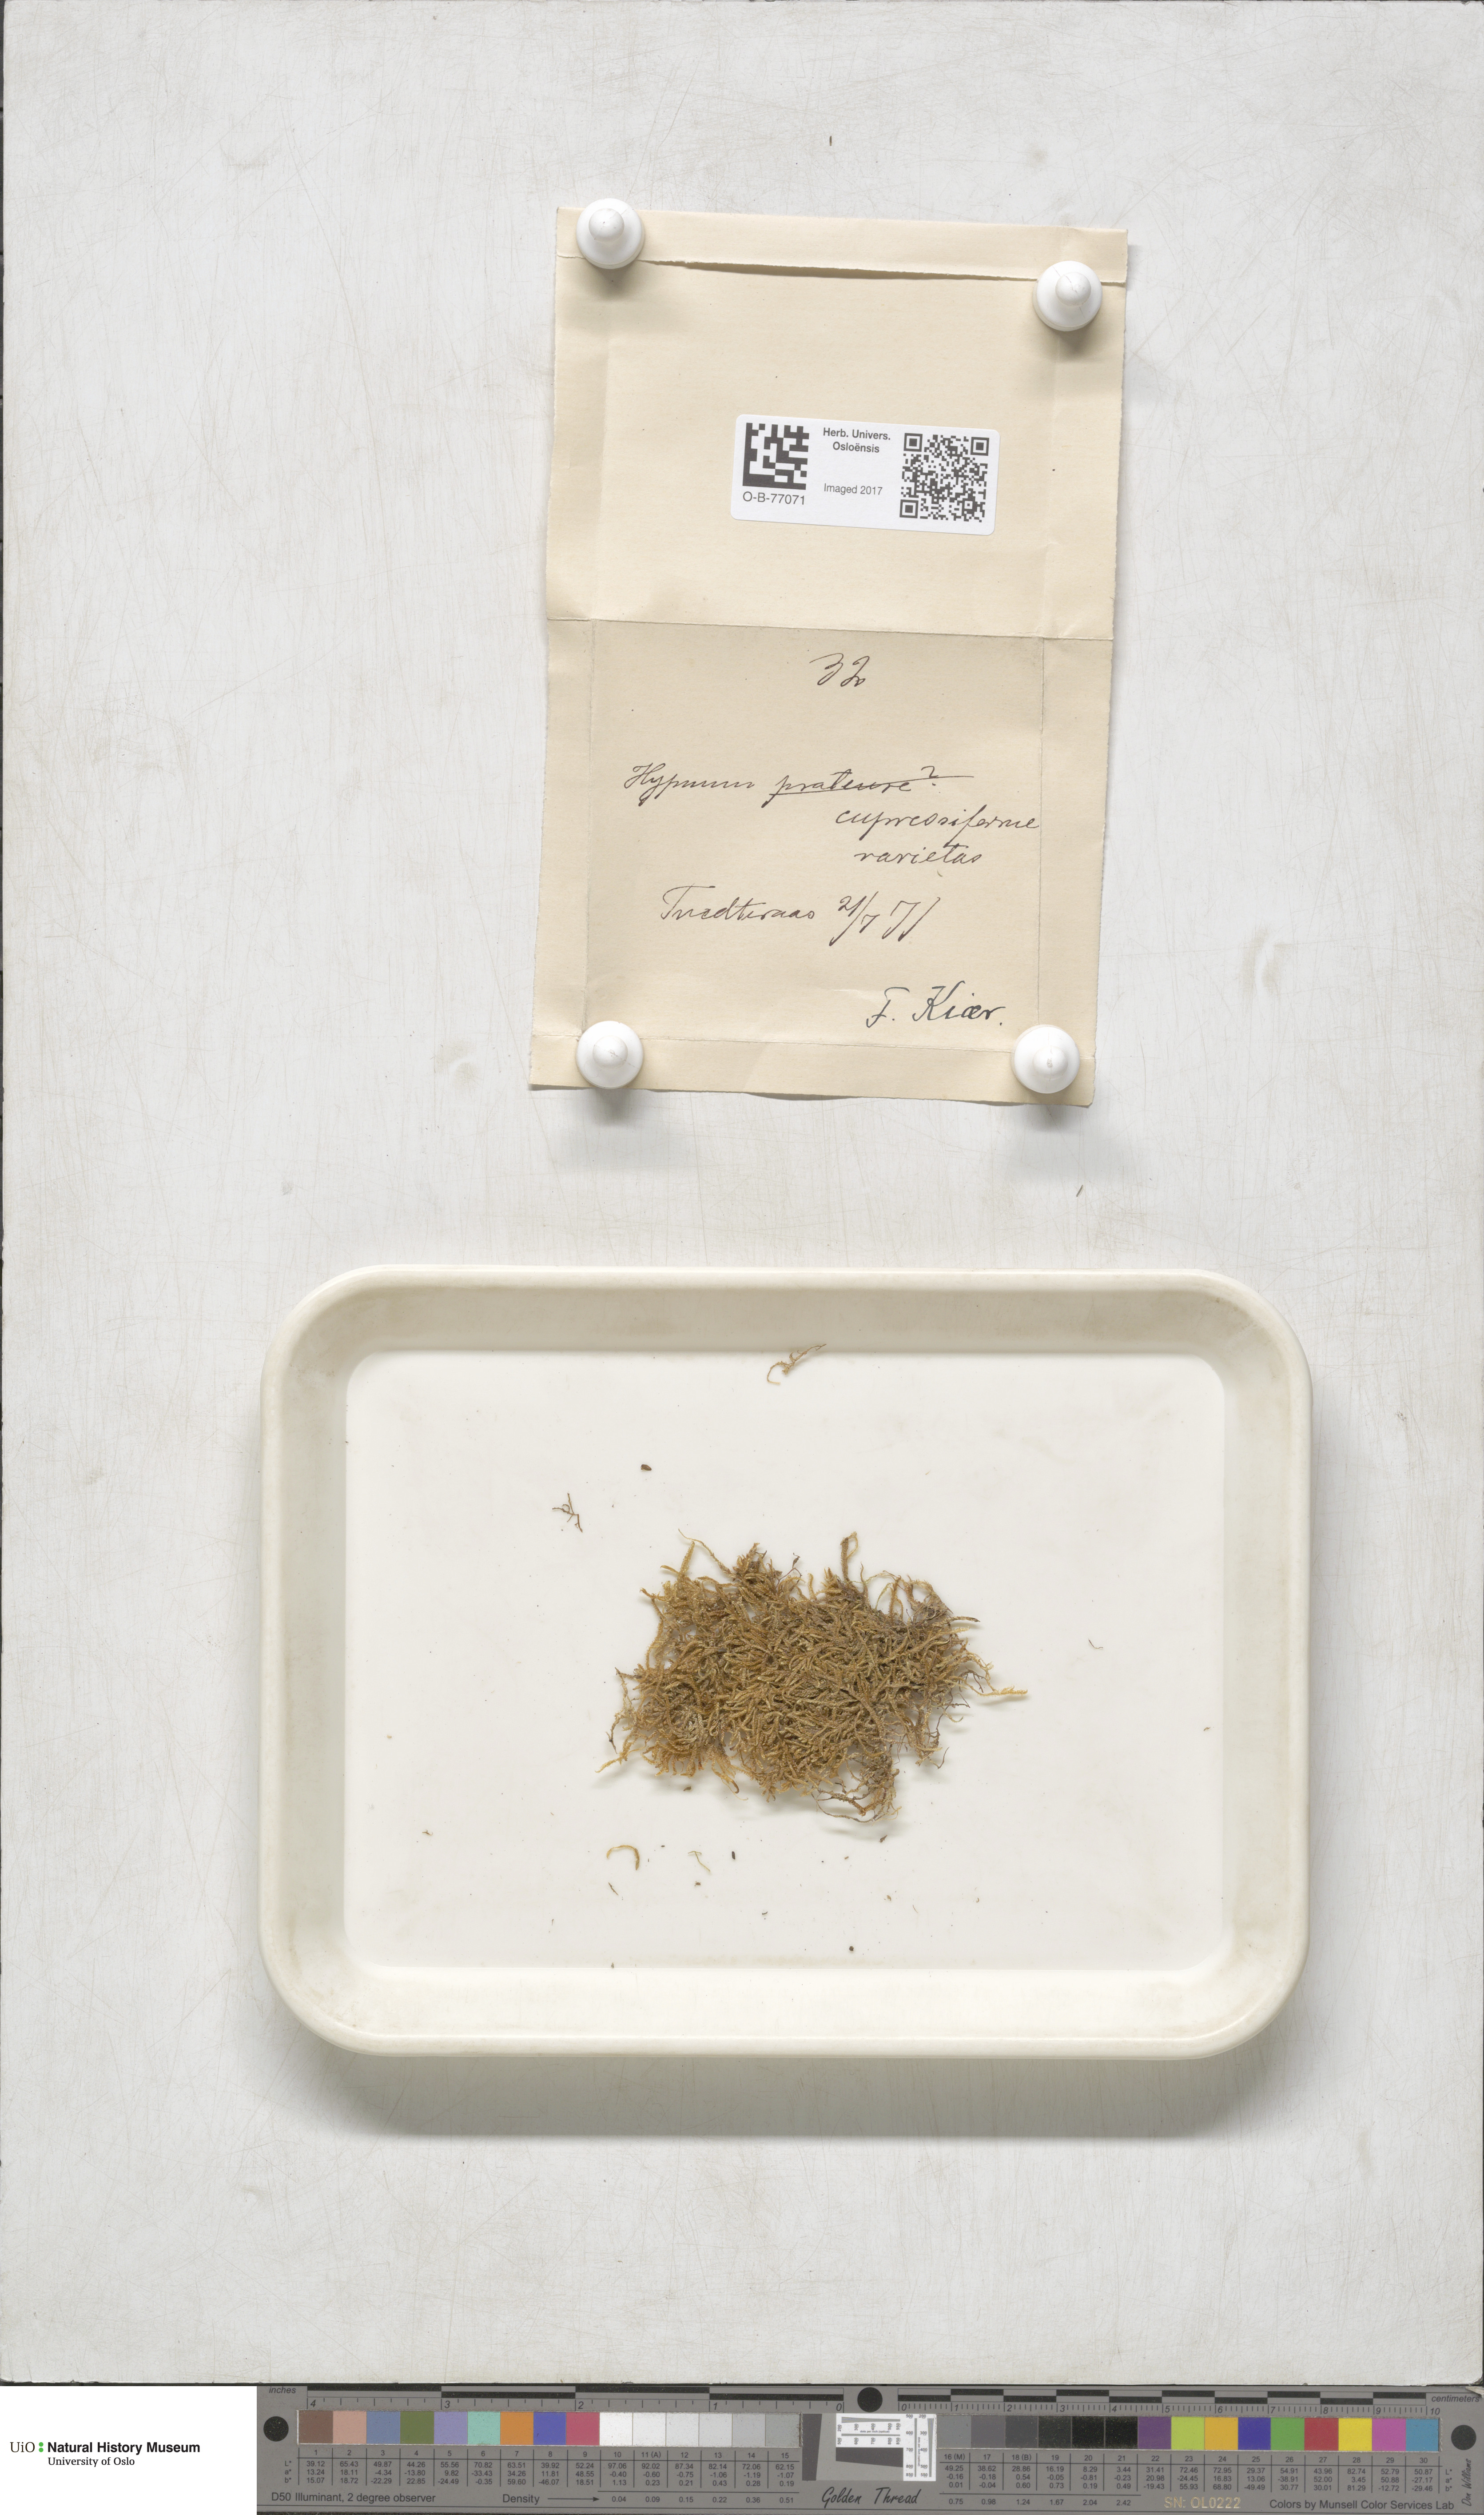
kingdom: Plantae
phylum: Bryophyta
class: Bryopsida
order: Hypnales
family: Hypnaceae
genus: Hypnum
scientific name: Hypnum cupressiforme
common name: Cypress-leaved plait-moss
